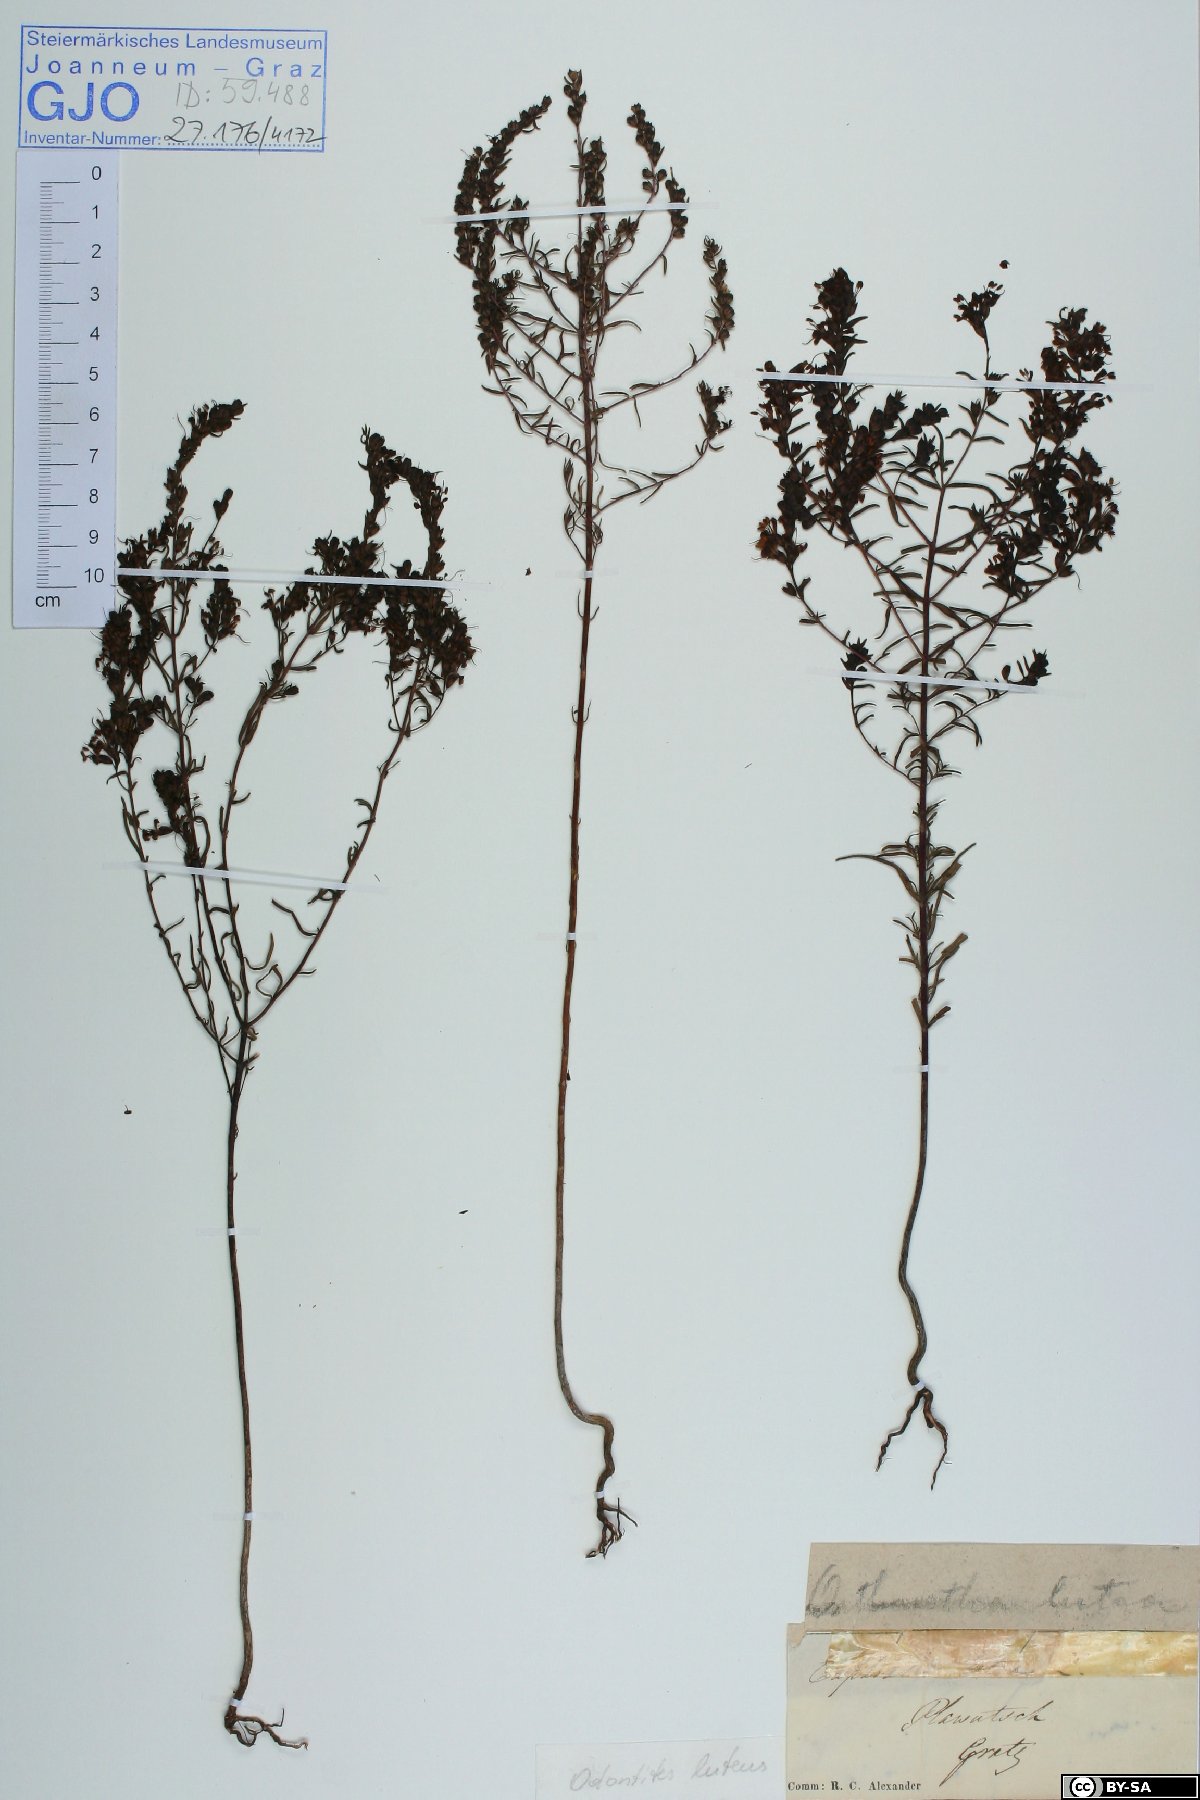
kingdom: Plantae
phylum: Tracheophyta
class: Magnoliopsida
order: Lamiales
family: Orobanchaceae
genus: Odontites
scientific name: Odontites luteus
